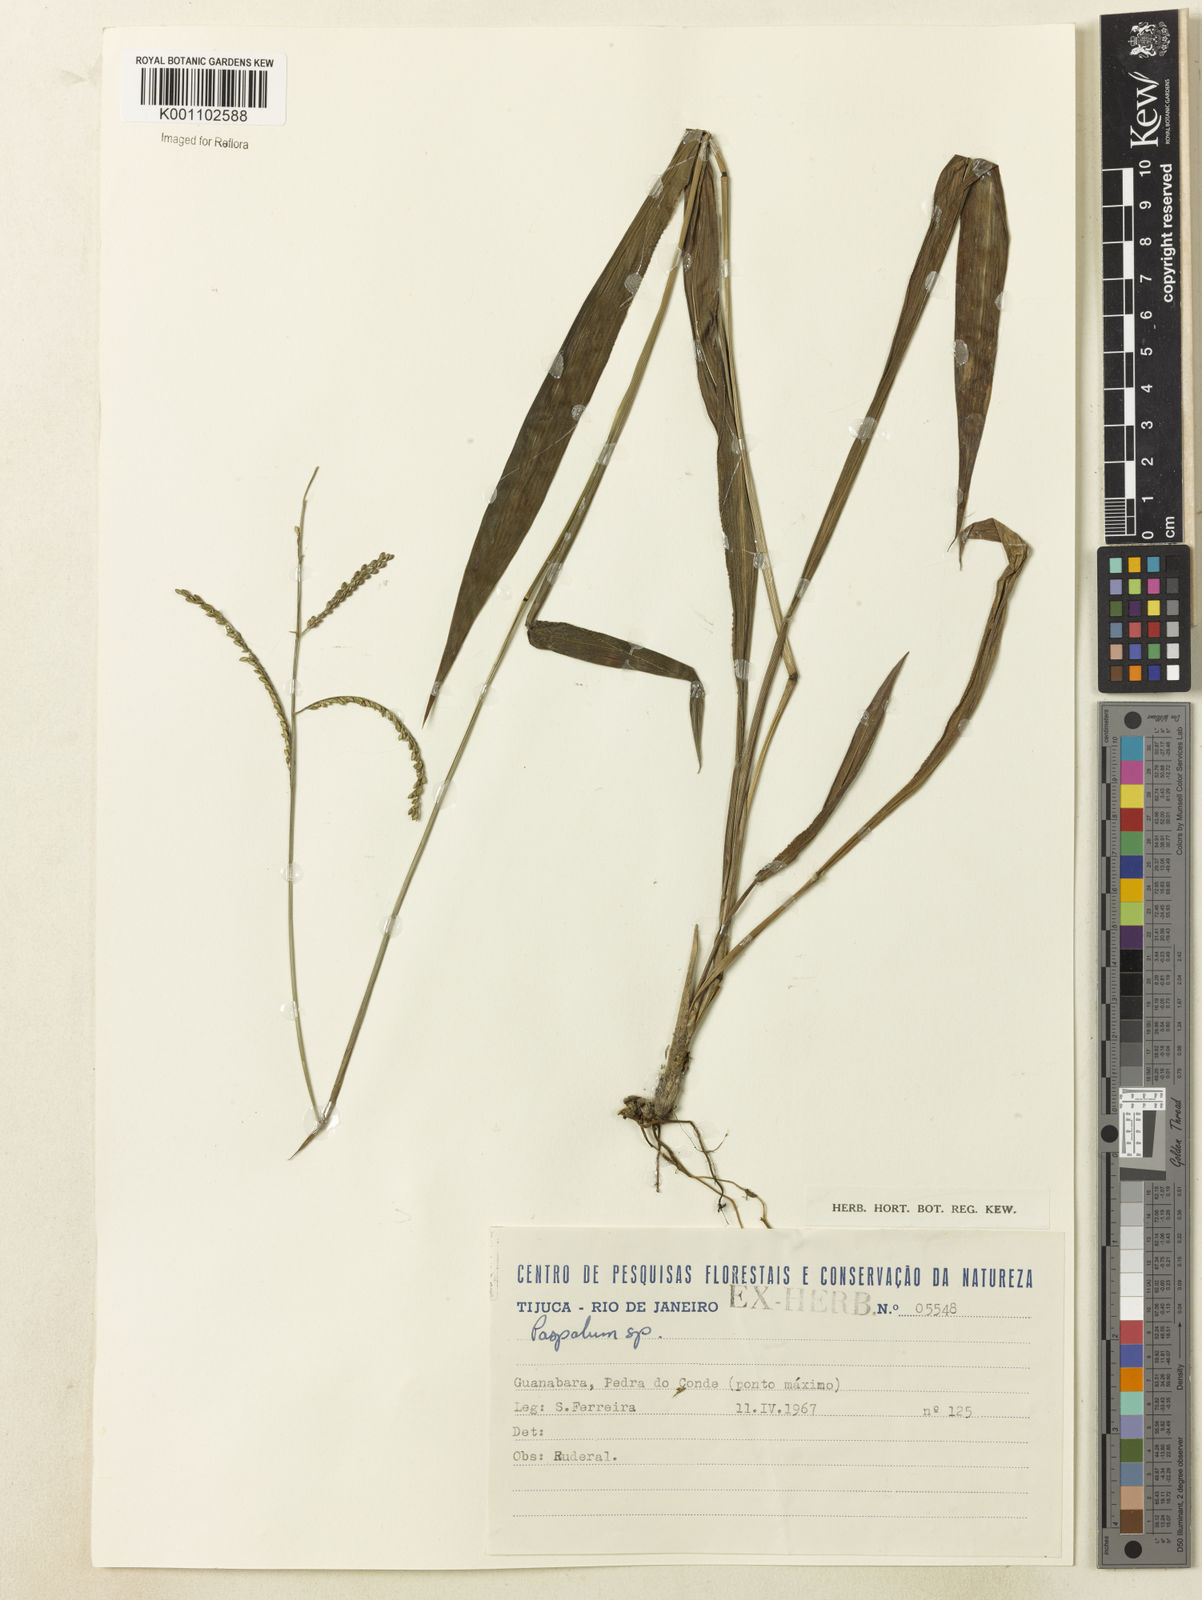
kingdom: Plantae
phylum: Tracheophyta
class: Liliopsida
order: Poales
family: Poaceae
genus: Paspalum
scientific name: Paspalum corcovadense
